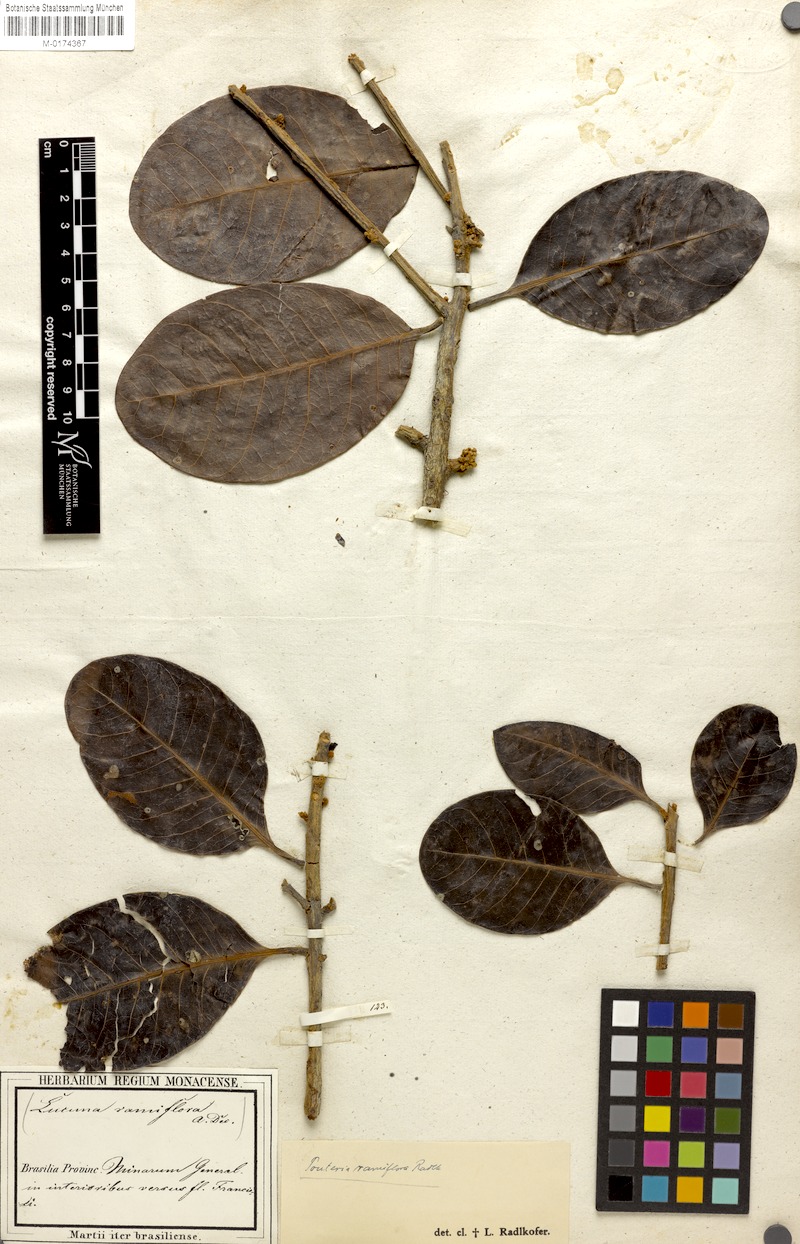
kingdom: Plantae
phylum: Tracheophyta
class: Magnoliopsida
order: Ericales
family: Sapotaceae
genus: Pouteria
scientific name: Pouteria ramiflora
